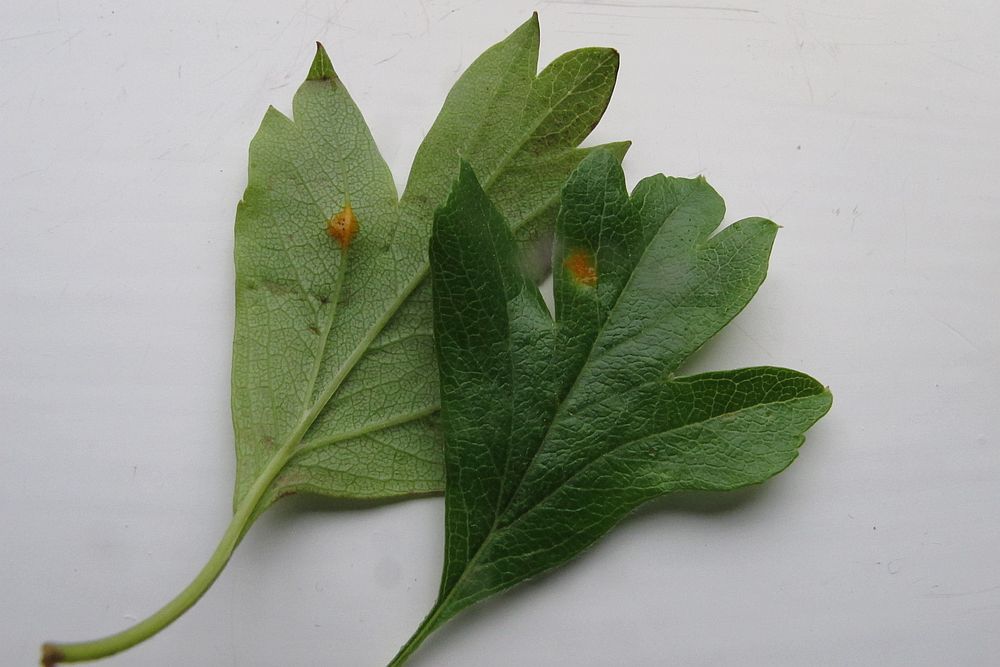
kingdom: Fungi
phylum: Basidiomycota
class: Pucciniomycetes
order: Pucciniales
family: Gymnosporangiaceae
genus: Gymnosporangium
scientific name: Gymnosporangium clavariiforme
